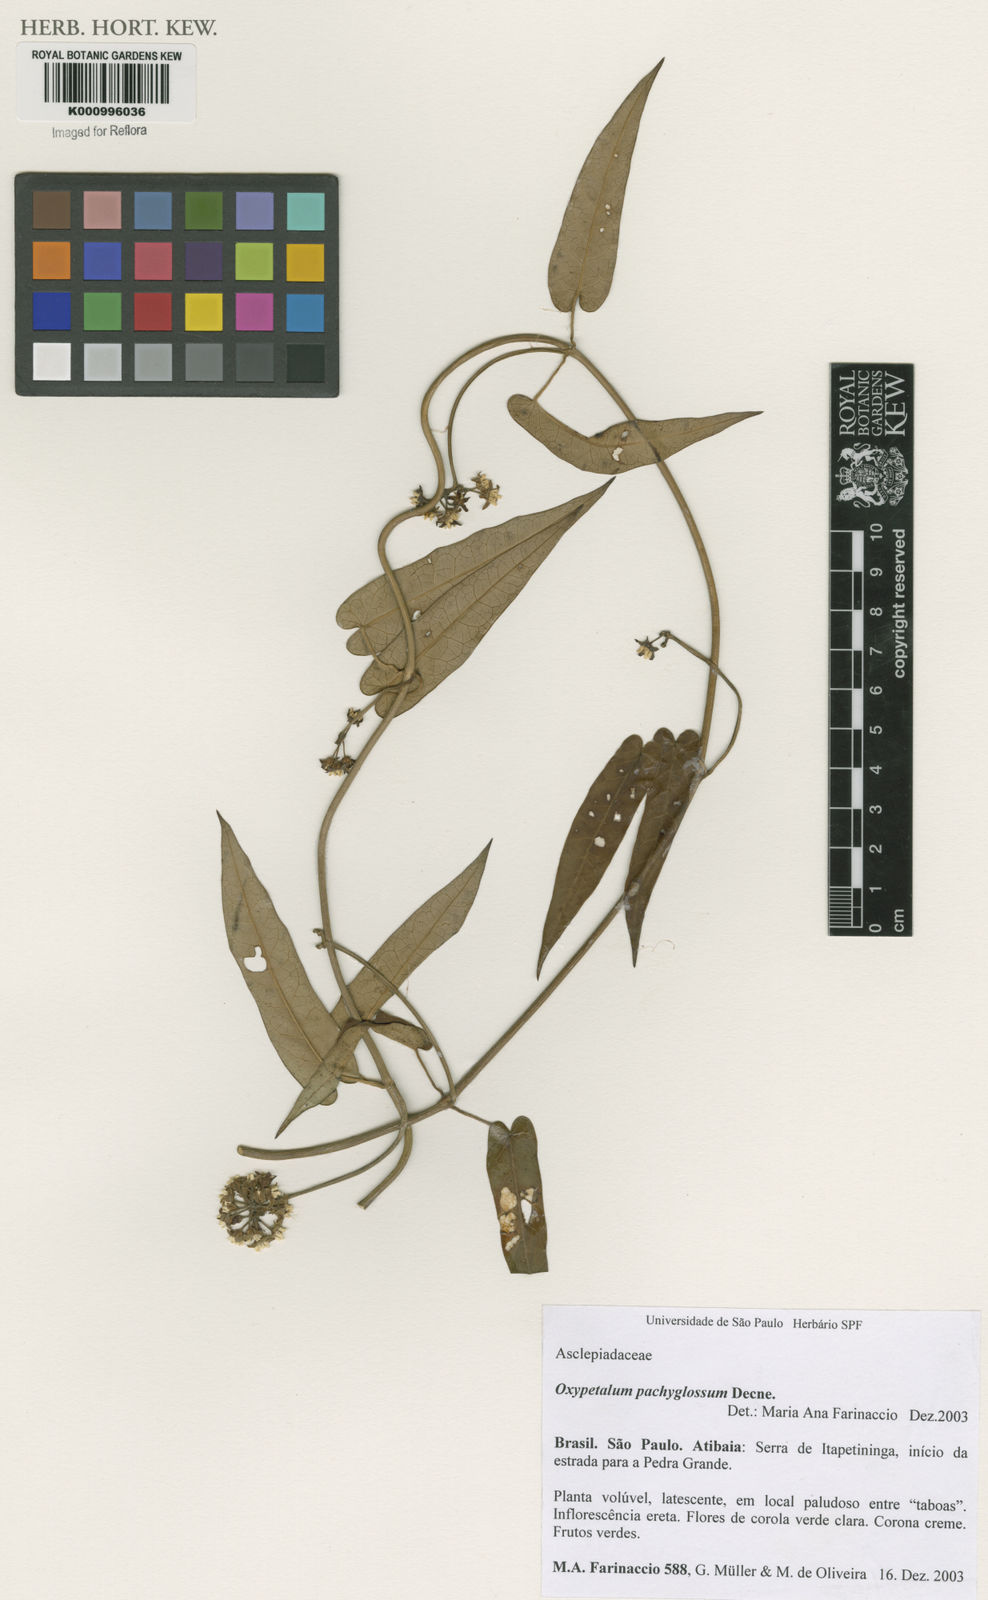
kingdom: Plantae
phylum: Tracheophyta
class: Magnoliopsida
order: Gentianales
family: Apocynaceae
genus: Oxypetalum
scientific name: Oxypetalum pachyglossum
